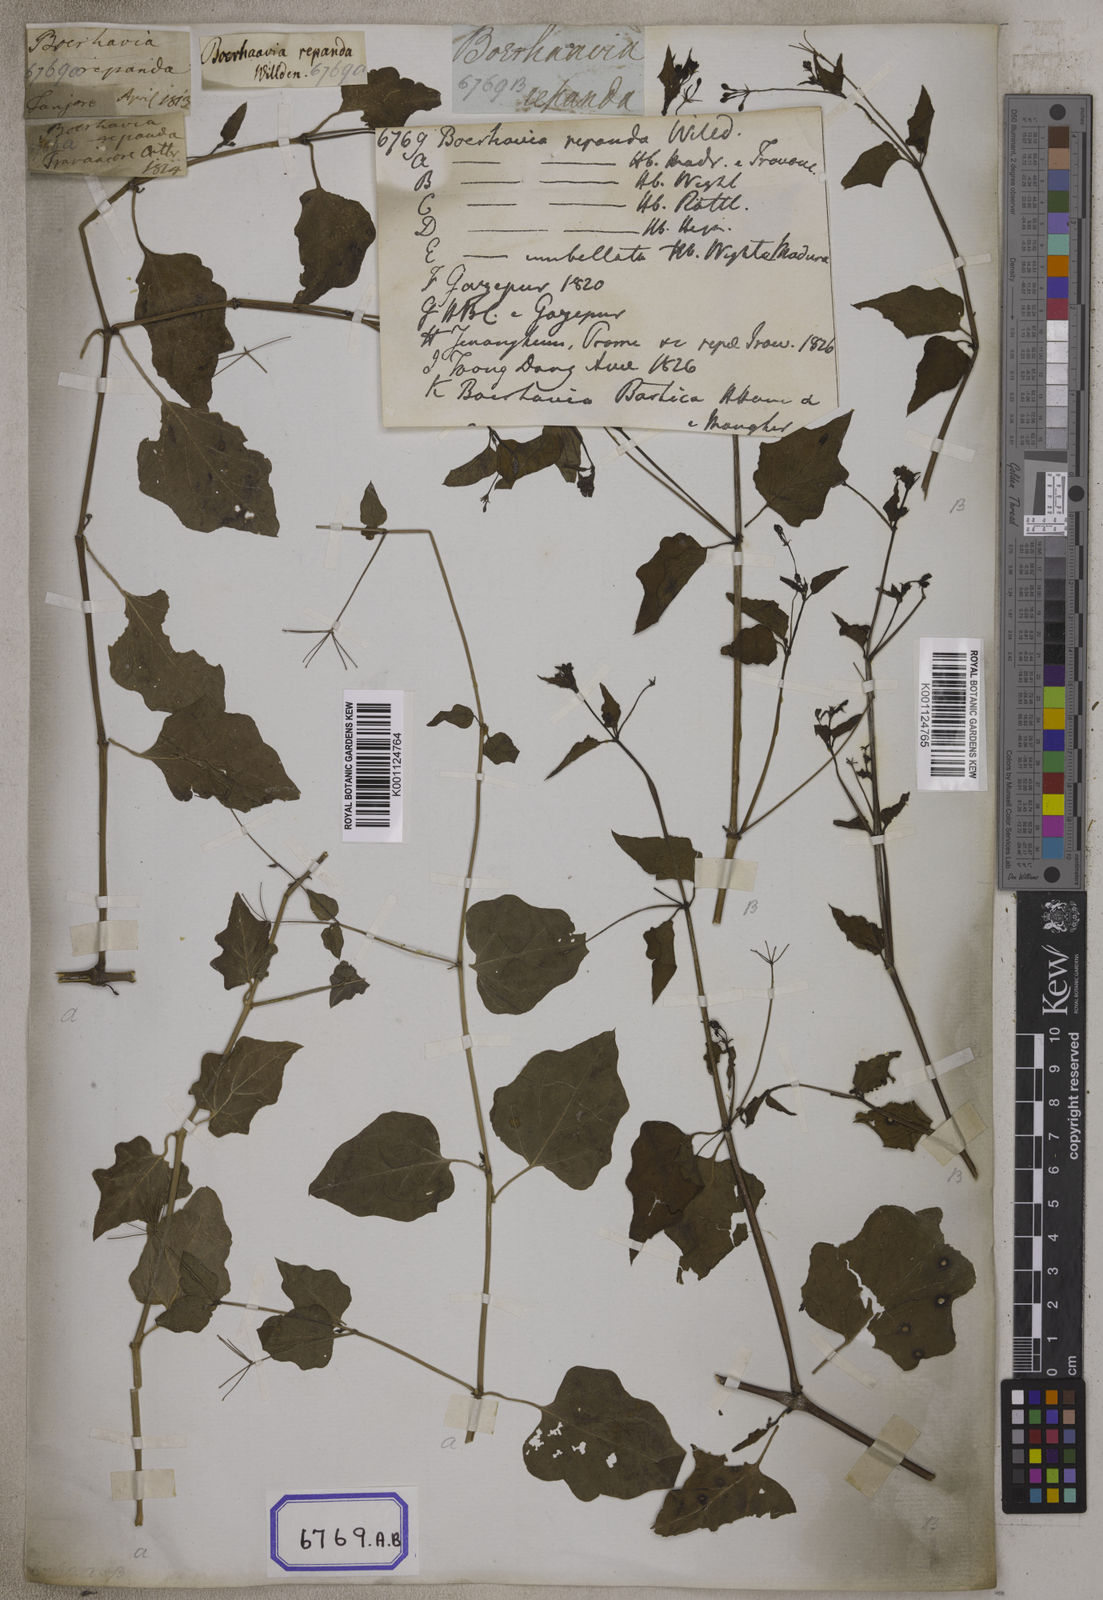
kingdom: Plantae
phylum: Tracheophyta
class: Magnoliopsida
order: Caryophyllales
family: Nyctaginaceae
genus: Commicarpus
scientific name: Commicarpus chinensis
